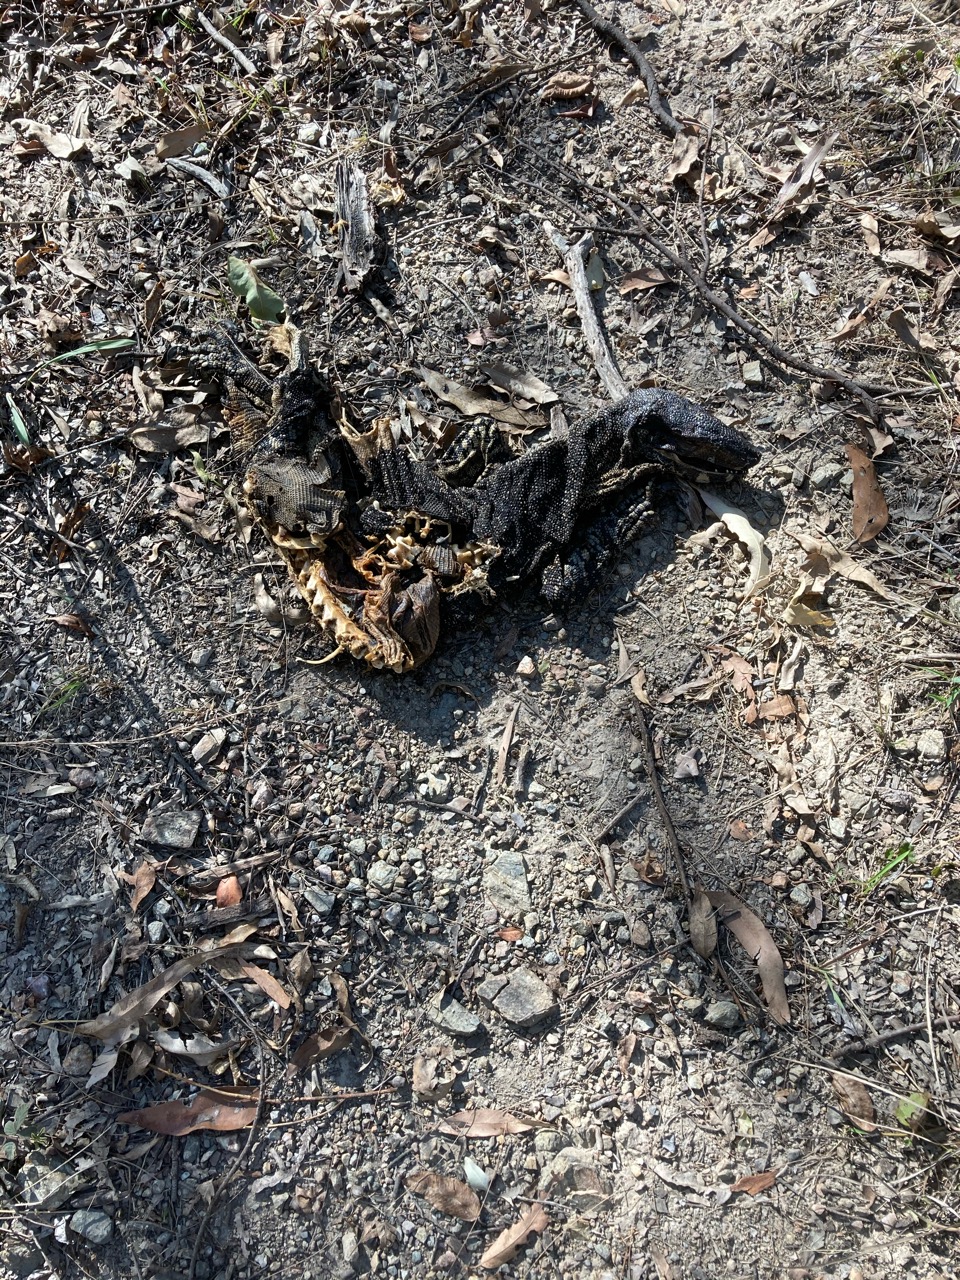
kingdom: Animalia
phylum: Chordata
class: Squamata
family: Varanidae
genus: Varanus
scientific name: Varanus varius
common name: Lace monitor
